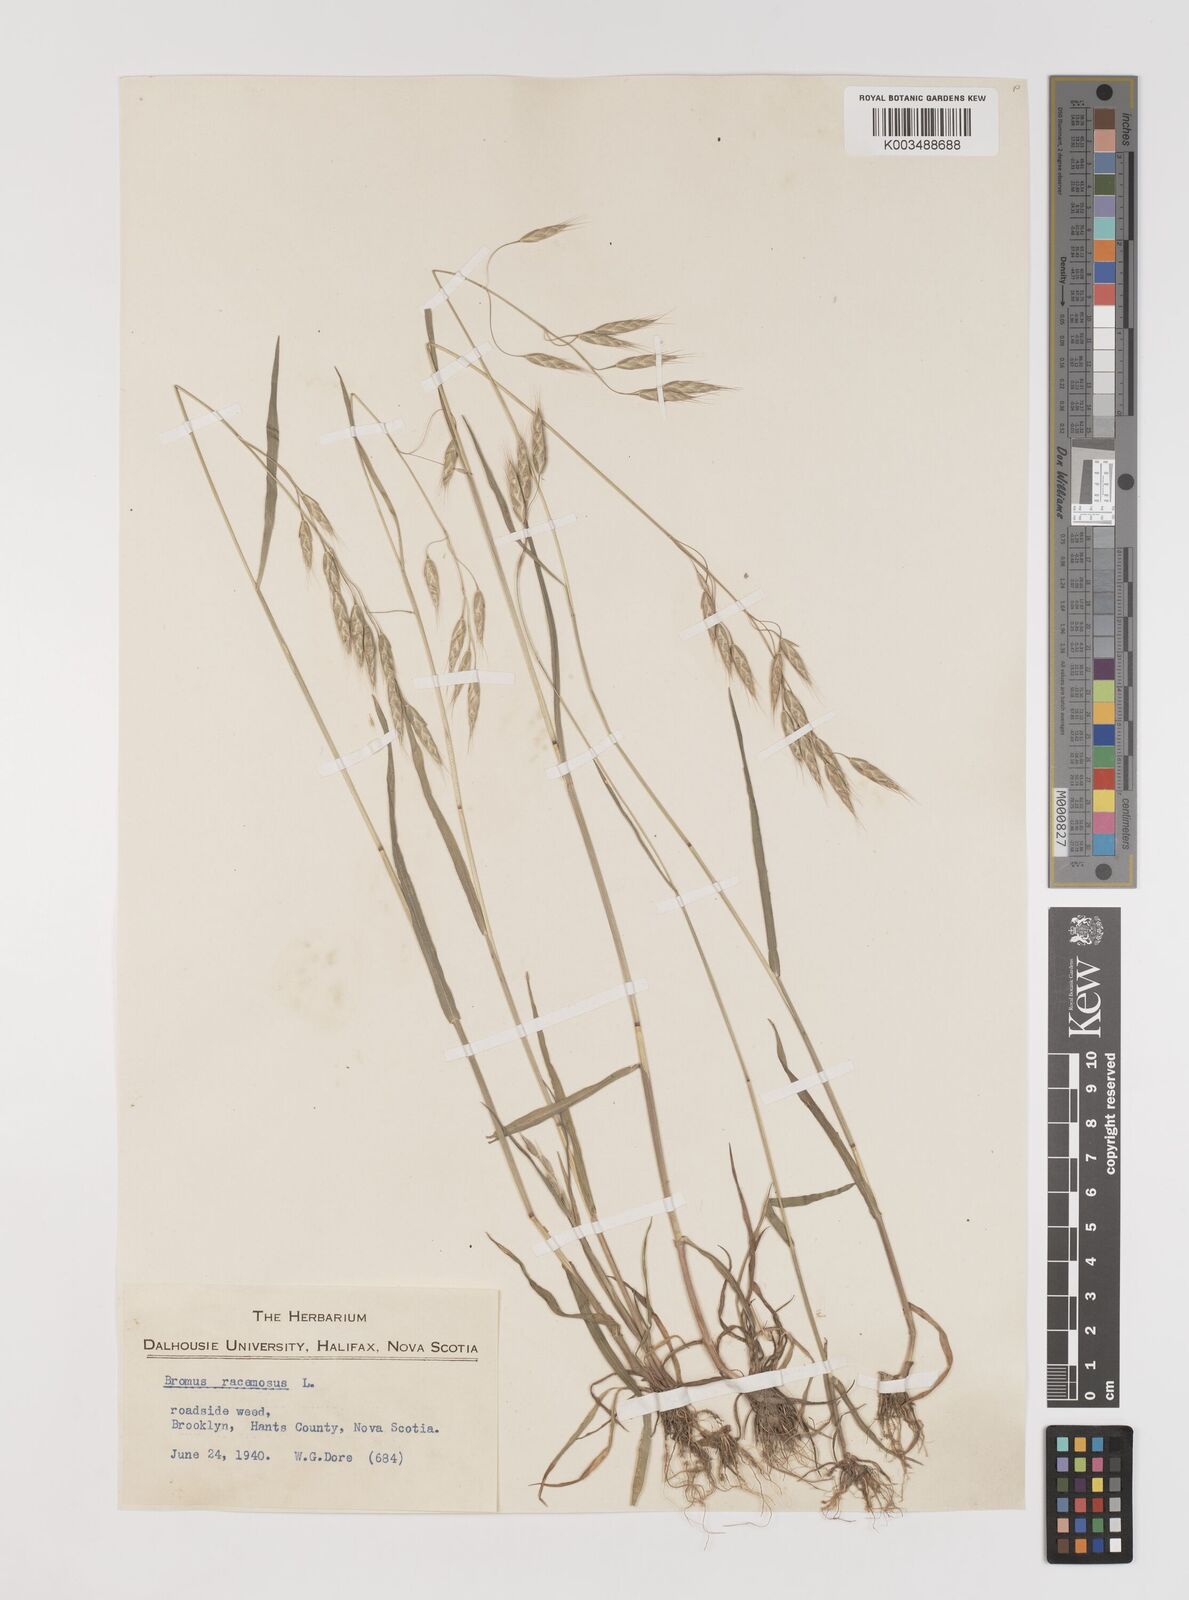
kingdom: Plantae
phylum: Tracheophyta
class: Liliopsida
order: Poales
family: Poaceae
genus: Bromus
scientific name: Bromus racemosus
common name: Bald brome
